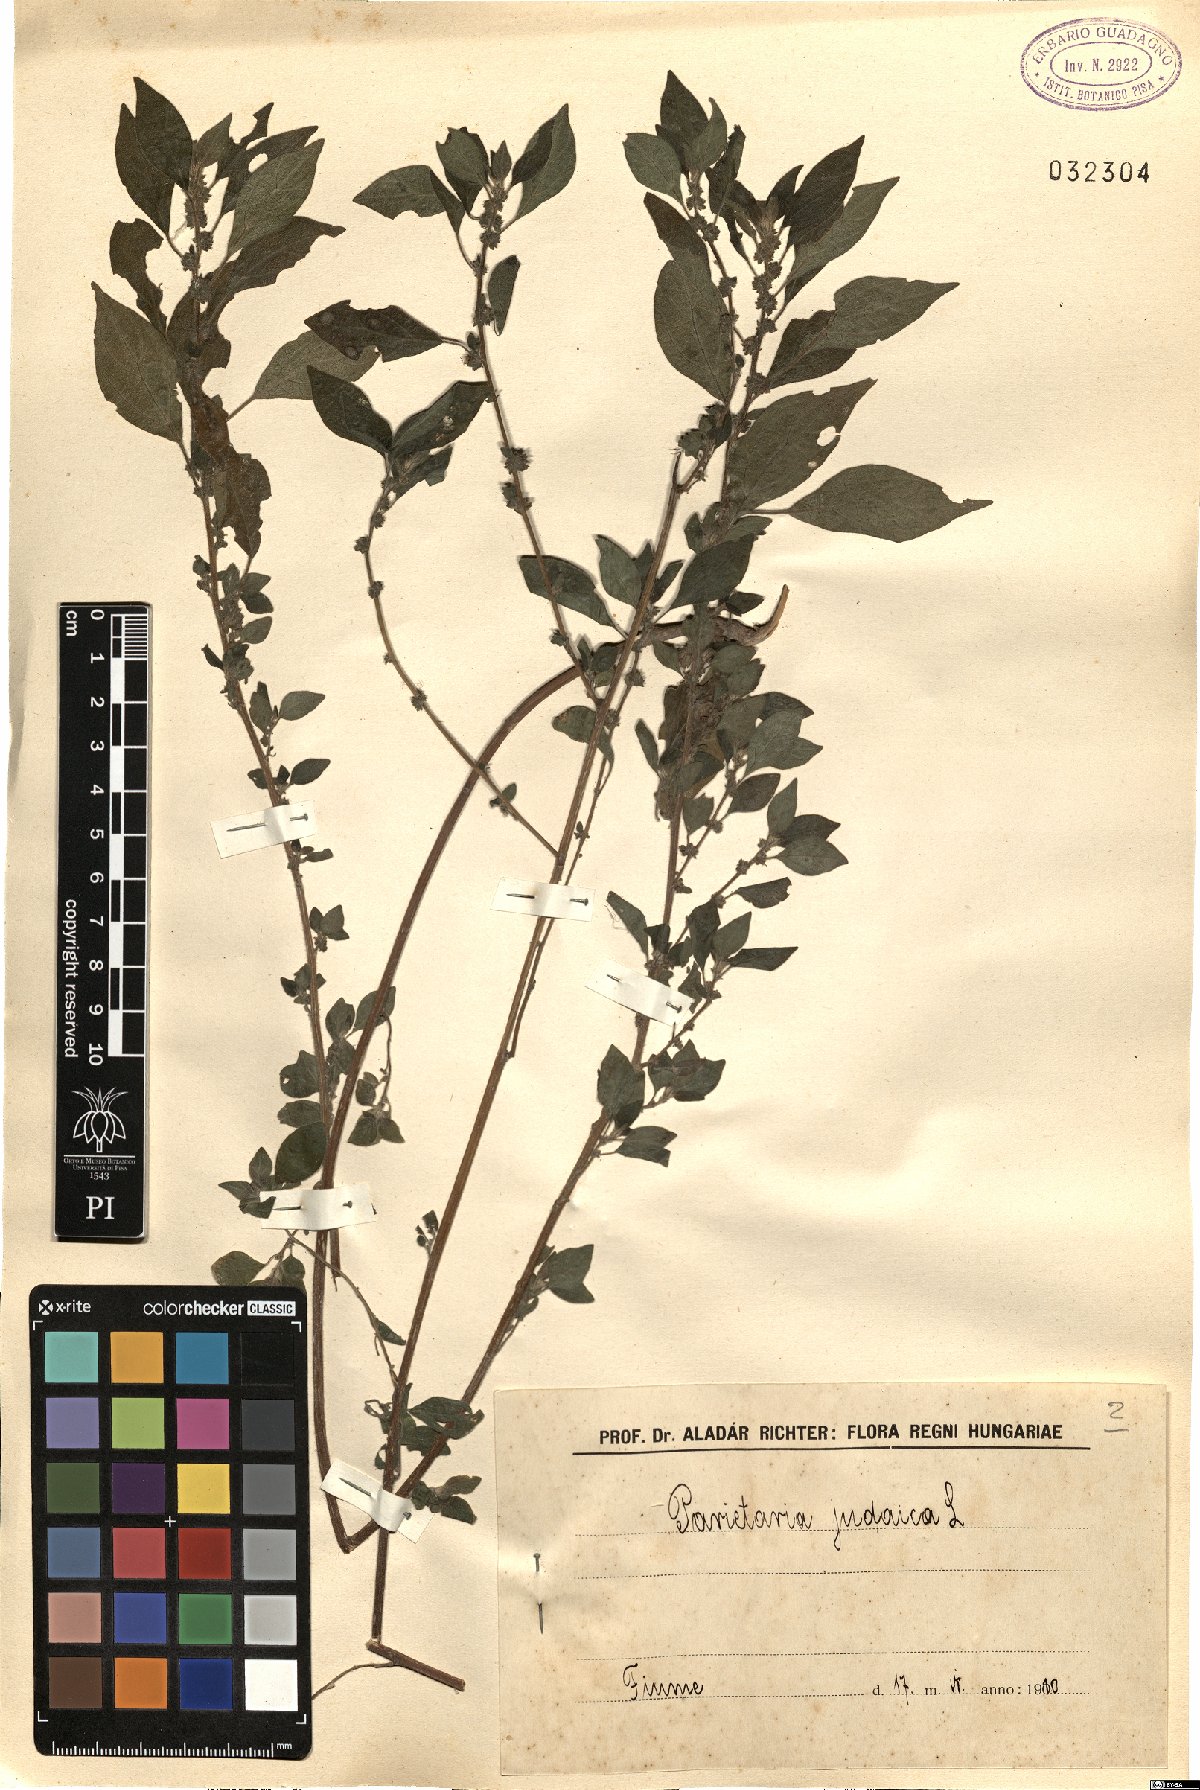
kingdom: Plantae
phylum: Tracheophyta
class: Magnoliopsida
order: Rosales
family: Urticaceae
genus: Parietaria
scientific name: Parietaria judaica
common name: Pellitory-of-the-wall
